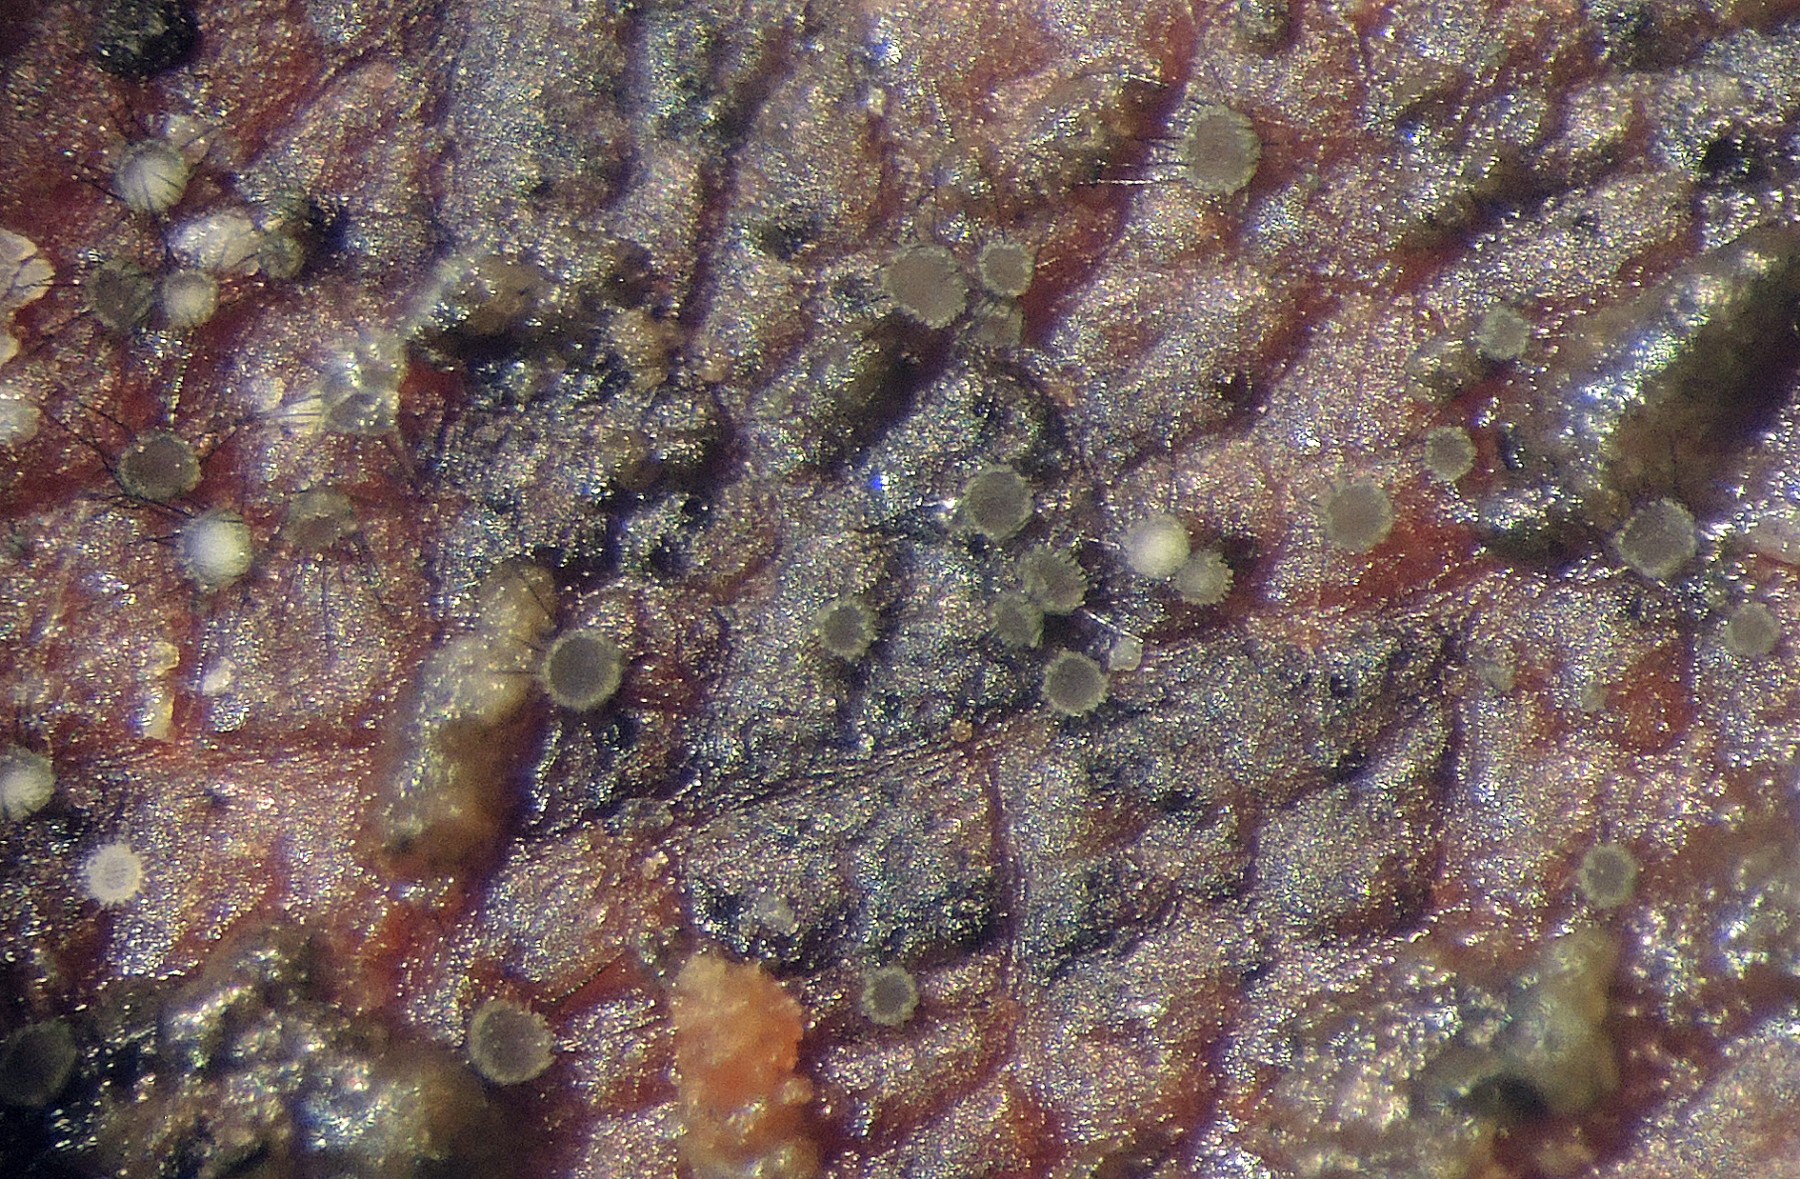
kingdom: Fungi
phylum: Ascomycota
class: Leotiomycetes
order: Helotiales
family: Hyphodiscaceae
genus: Venturiocistella
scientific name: Venturiocistella diversipila
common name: dværg-tveskægskive
